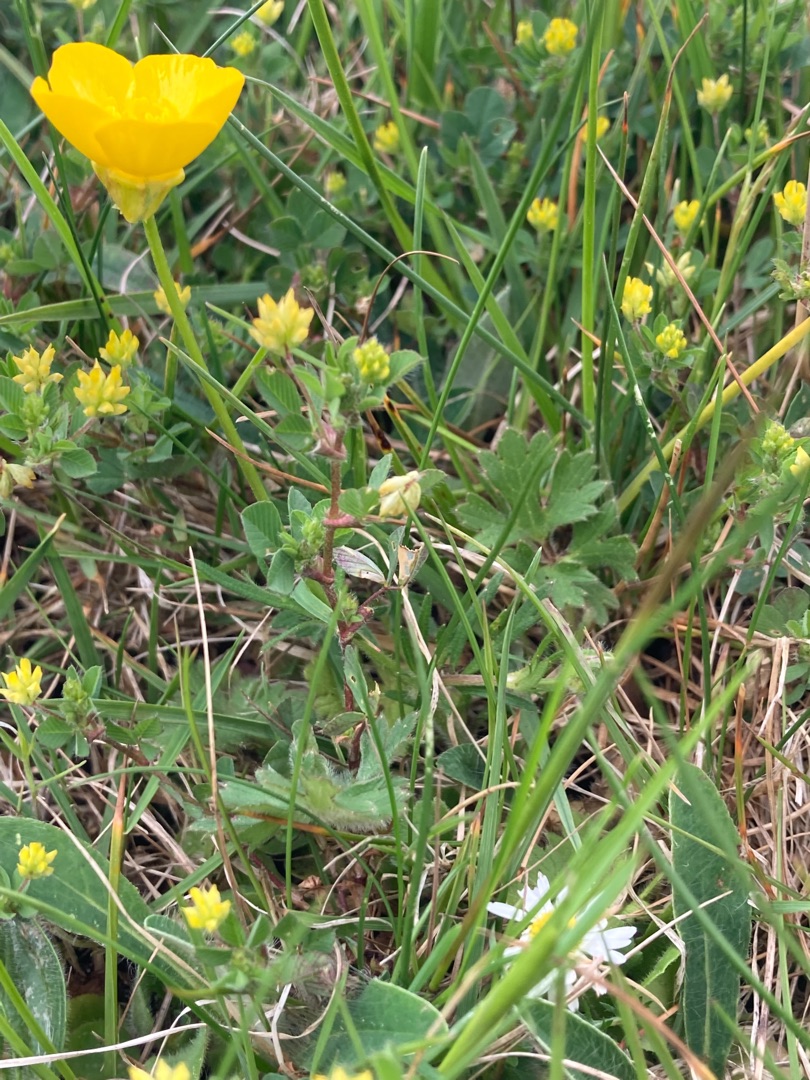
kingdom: Plantae
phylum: Tracheophyta
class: Magnoliopsida
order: Ranunculales
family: Ranunculaceae
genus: Ranunculus
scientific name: Ranunculus bulbosus
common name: Knold-ranunkel
